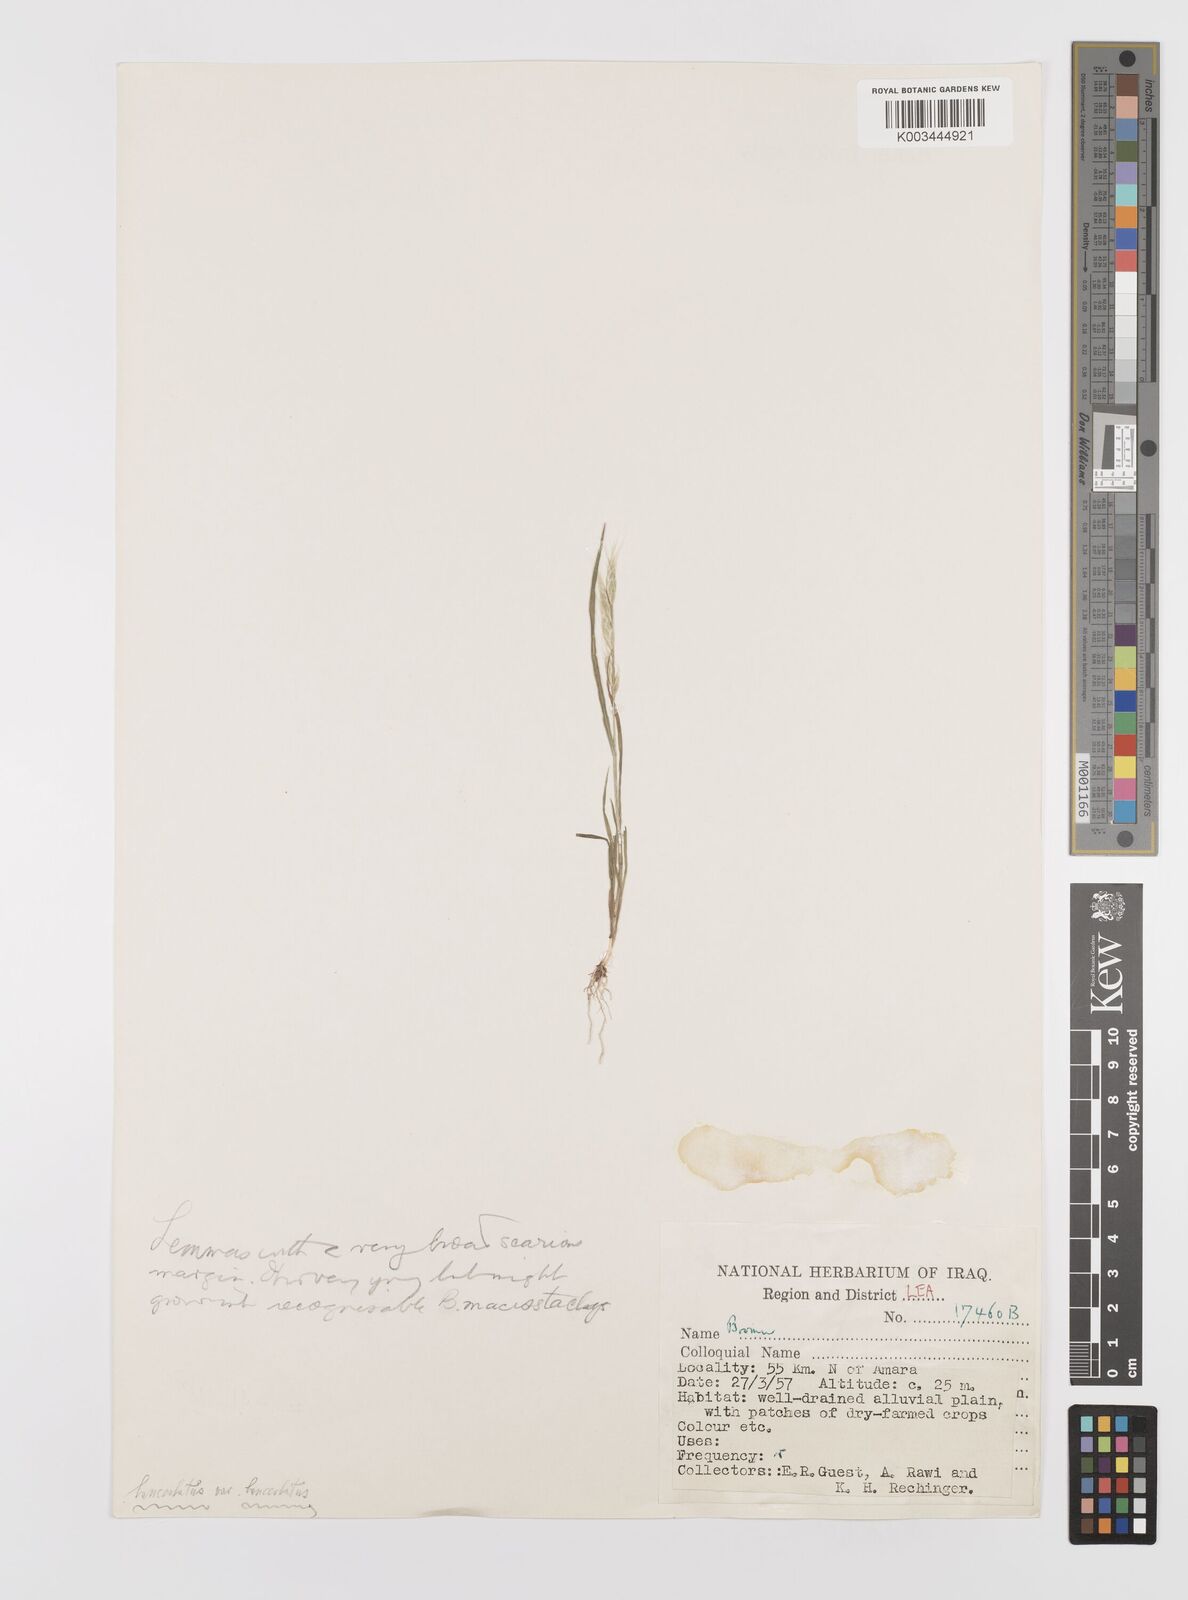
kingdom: Plantae
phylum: Tracheophyta
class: Liliopsida
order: Poales
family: Poaceae
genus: Bromus
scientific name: Bromus lanceolatus
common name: Mediterranean brome
